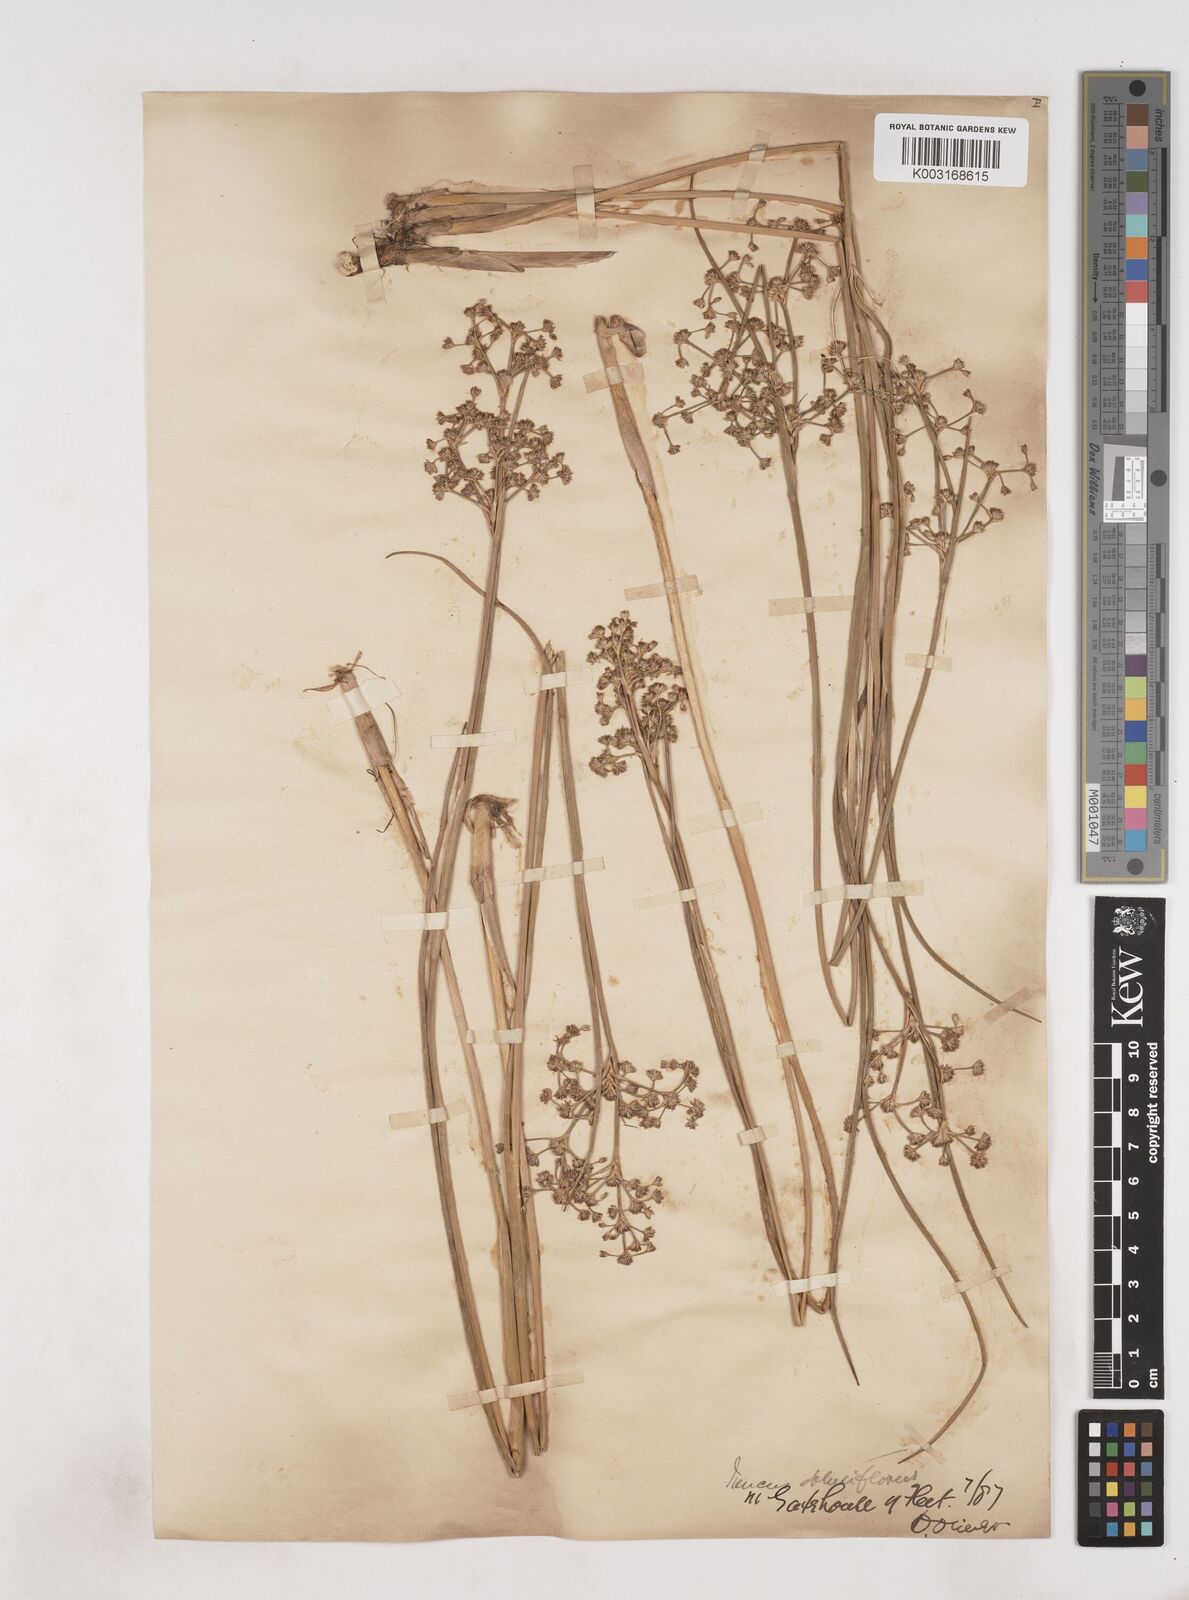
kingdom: Plantae
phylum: Tracheophyta
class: Liliopsida
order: Poales
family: Juncaceae
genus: Juncus
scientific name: Juncus subnodulosus
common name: Blunt-flowered rush
